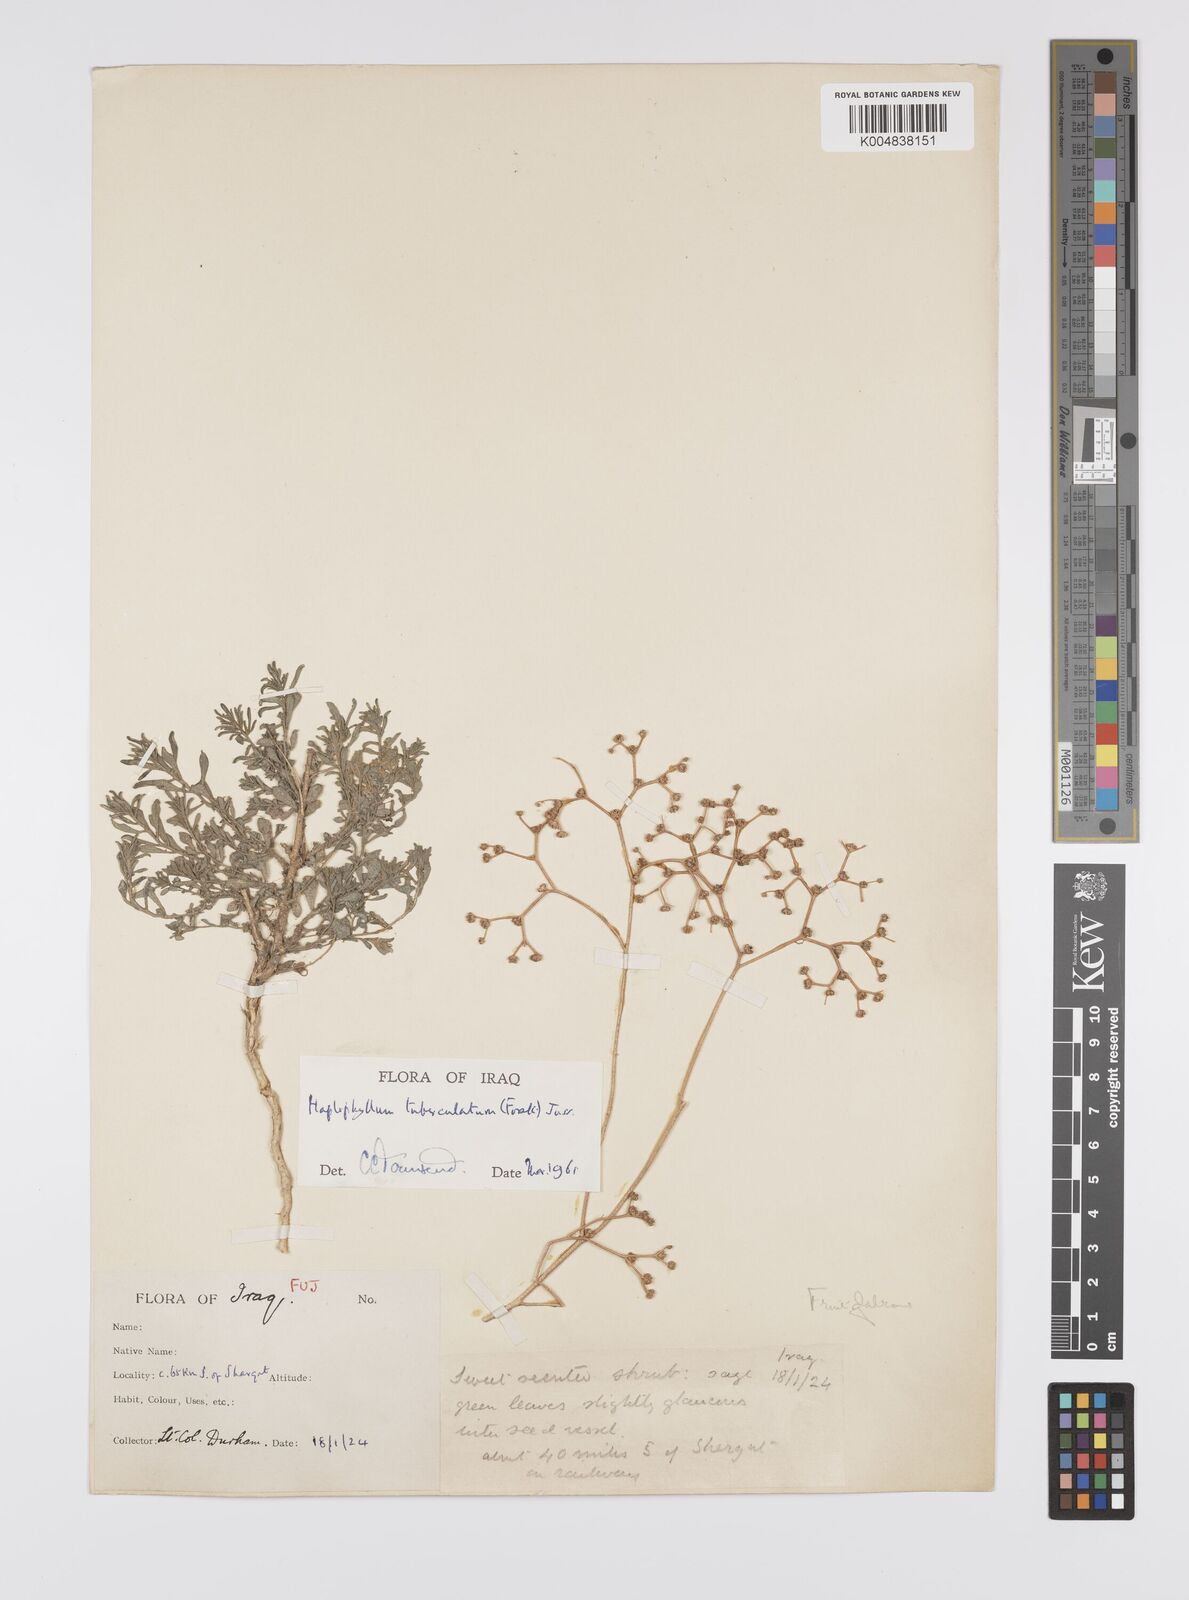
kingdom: Plantae
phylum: Tracheophyta
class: Magnoliopsida
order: Sapindales
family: Rutaceae
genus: Haplophyllum
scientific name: Haplophyllum tuberculatum
